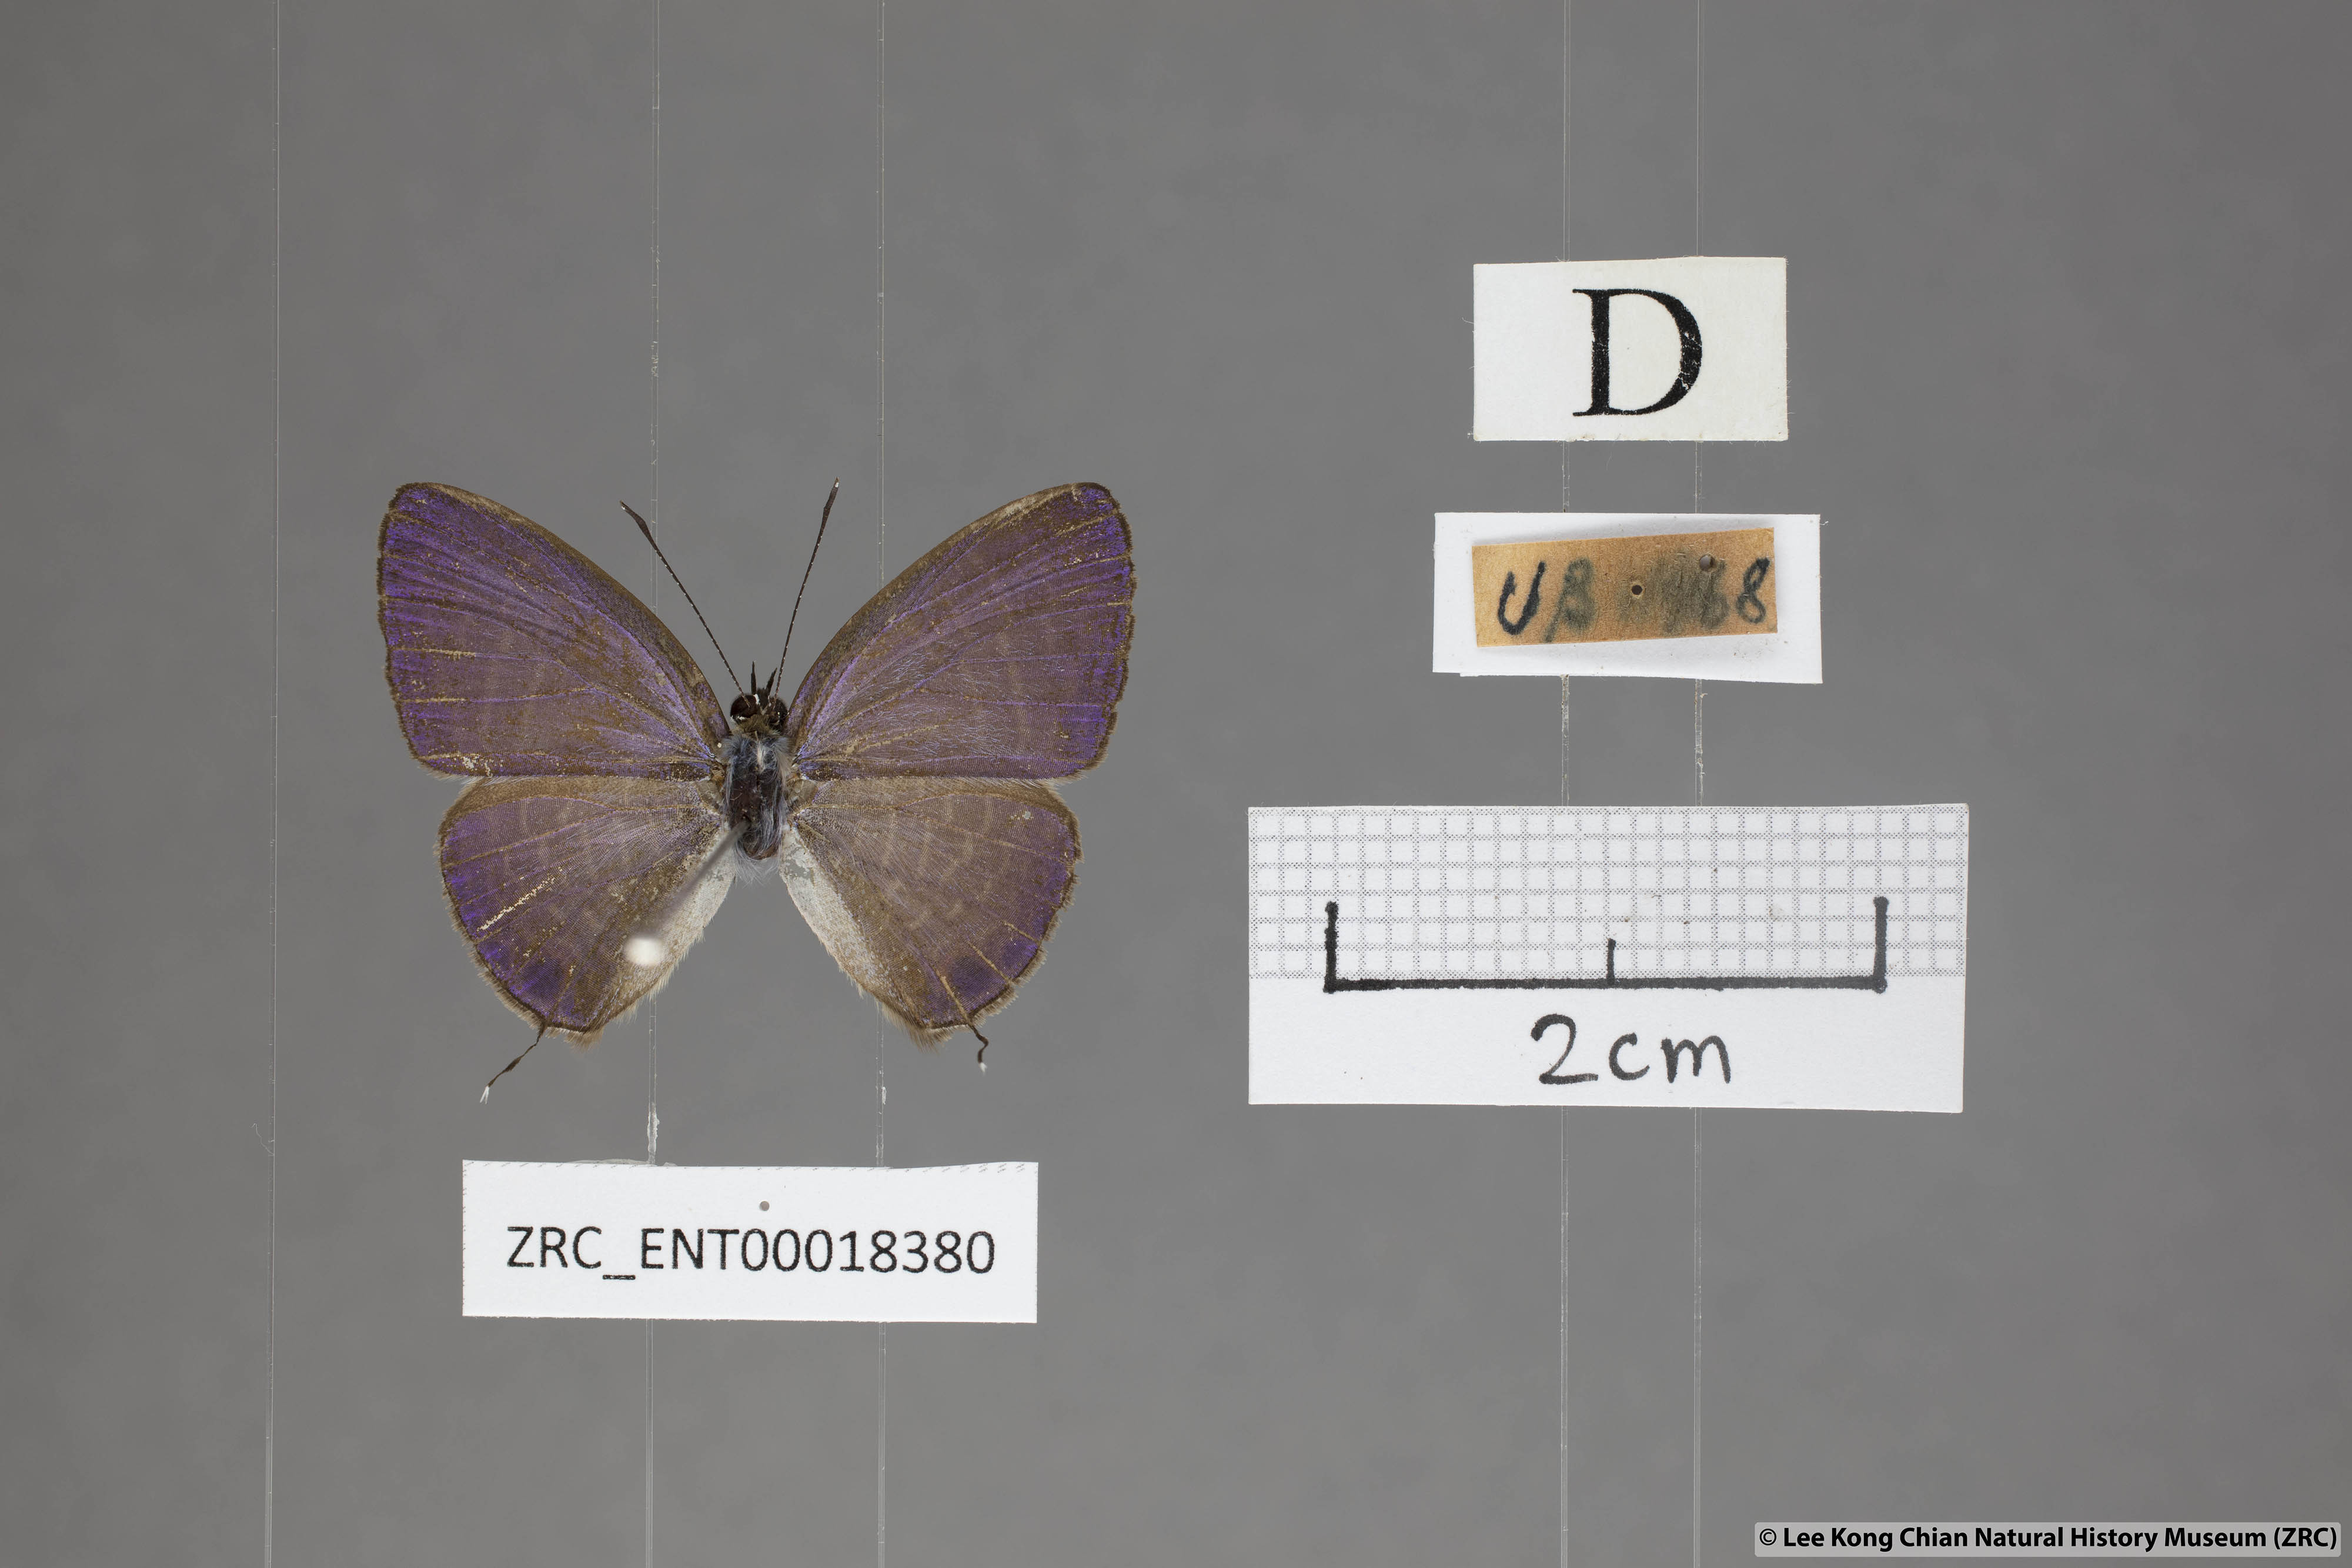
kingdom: Animalia
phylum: Arthropoda
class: Insecta
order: Lepidoptera
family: Lycaenidae
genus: Nacaduba
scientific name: Nacaduba kurava
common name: Transparent 6-line blue
